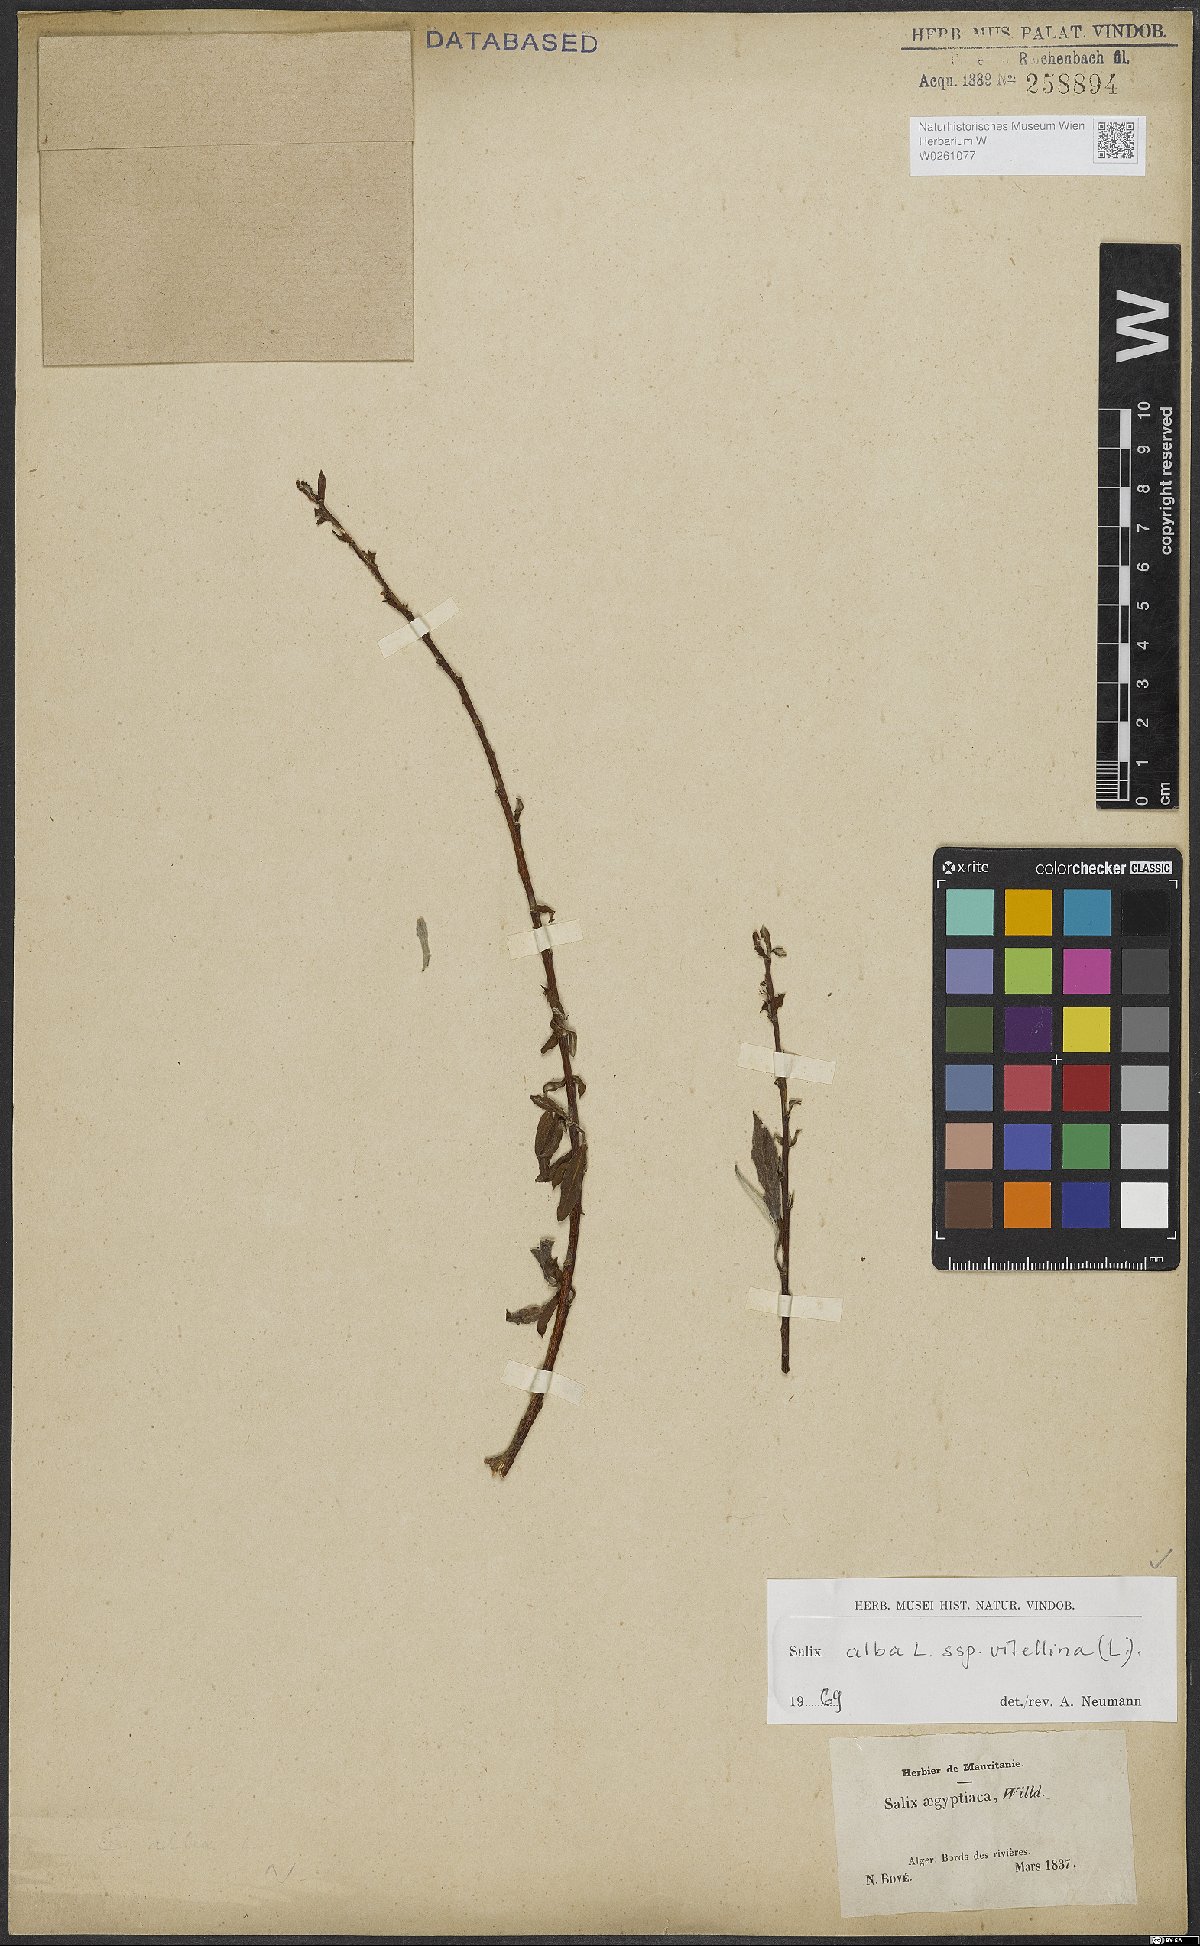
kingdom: Plantae
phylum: Tracheophyta
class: Magnoliopsida
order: Malpighiales
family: Salicaceae
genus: Salix
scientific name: Salix alba
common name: White willow
